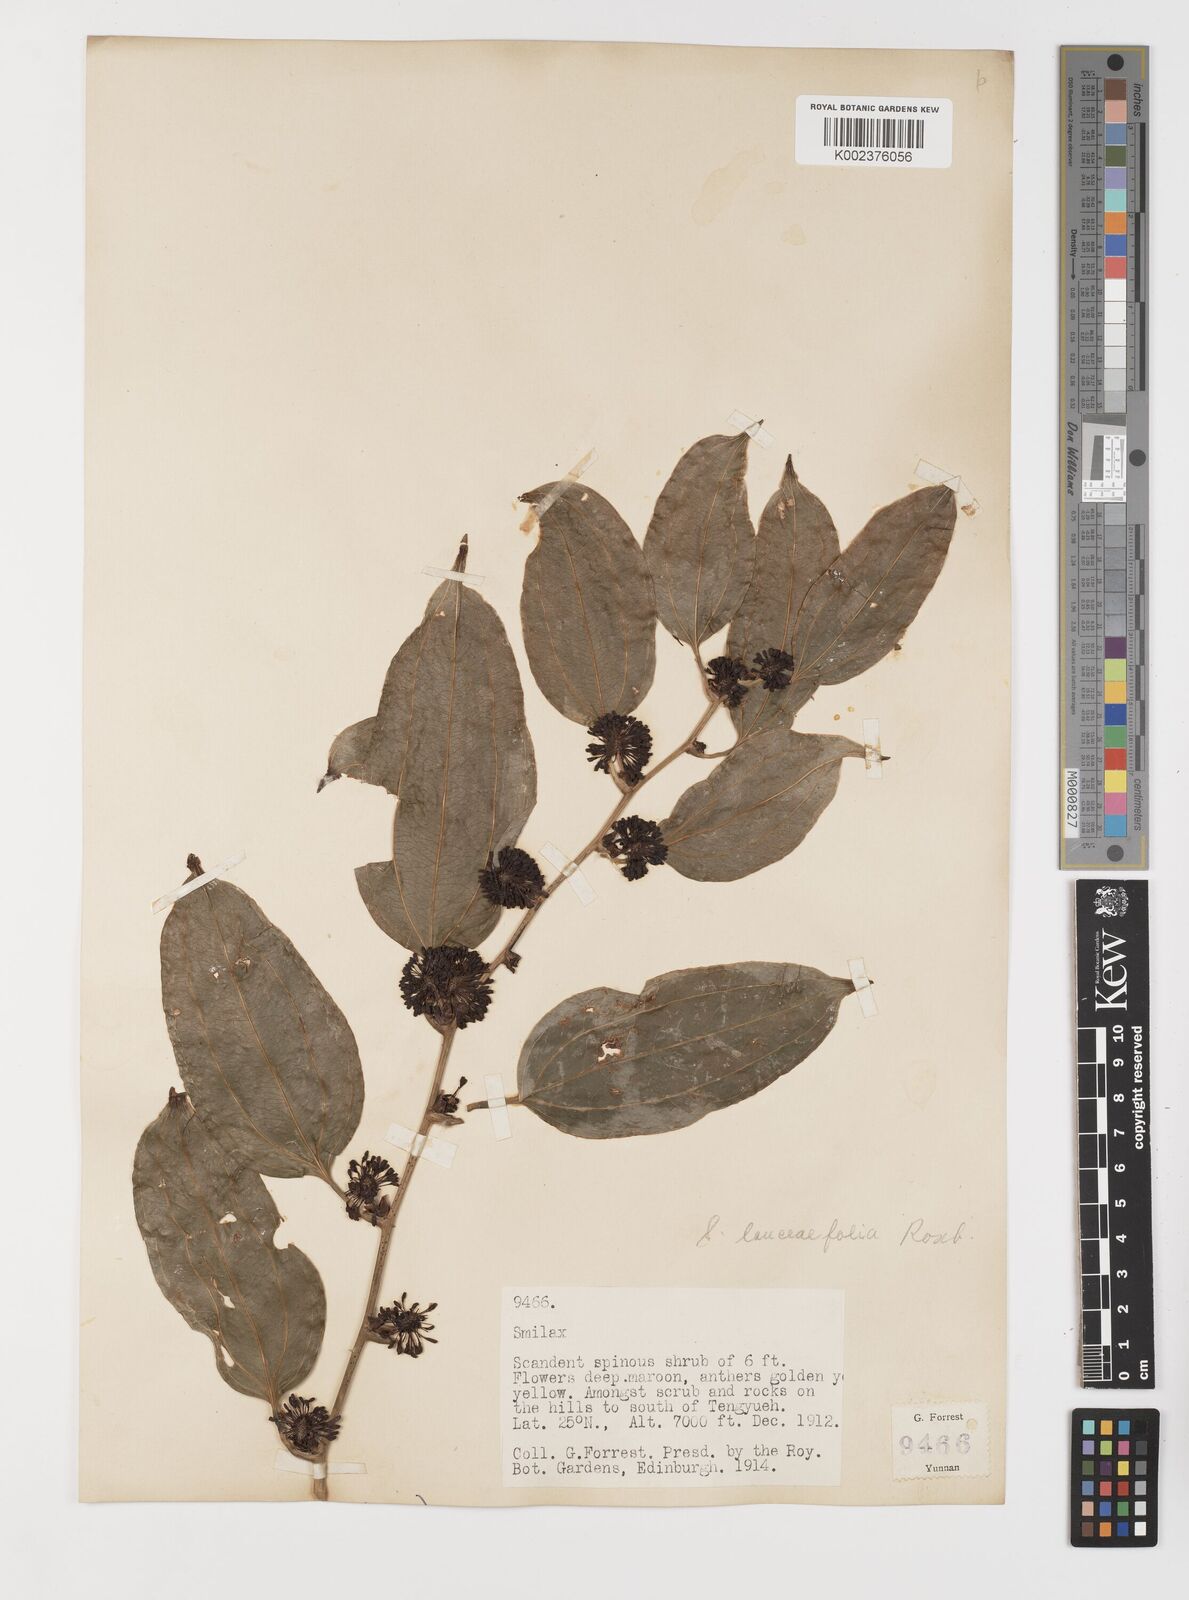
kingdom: Plantae
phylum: Tracheophyta
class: Liliopsida
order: Liliales
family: Smilacaceae
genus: Smilax
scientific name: Smilax lanceifolia
